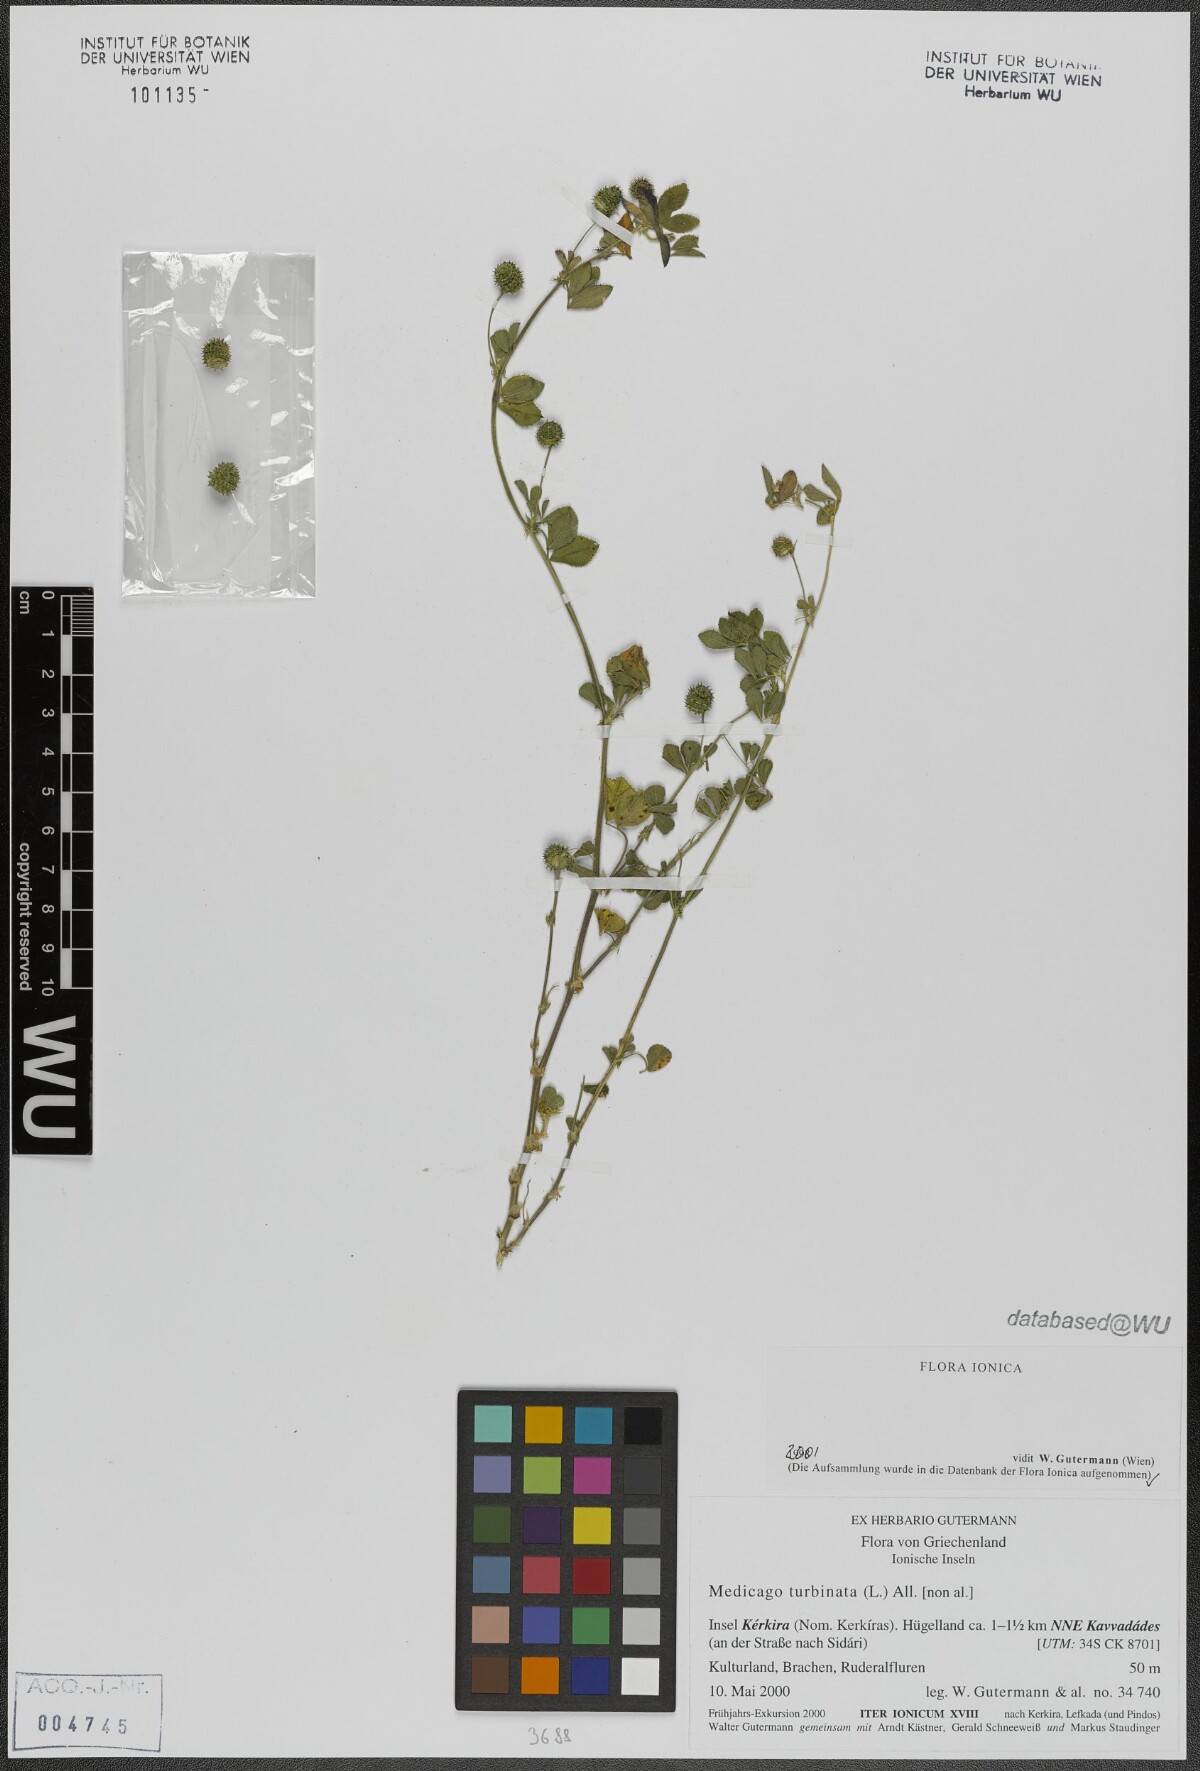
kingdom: Plantae
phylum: Tracheophyta
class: Magnoliopsida
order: Fabales
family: Fabaceae
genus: Medicago
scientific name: Medicago turbinata
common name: Southern medick
